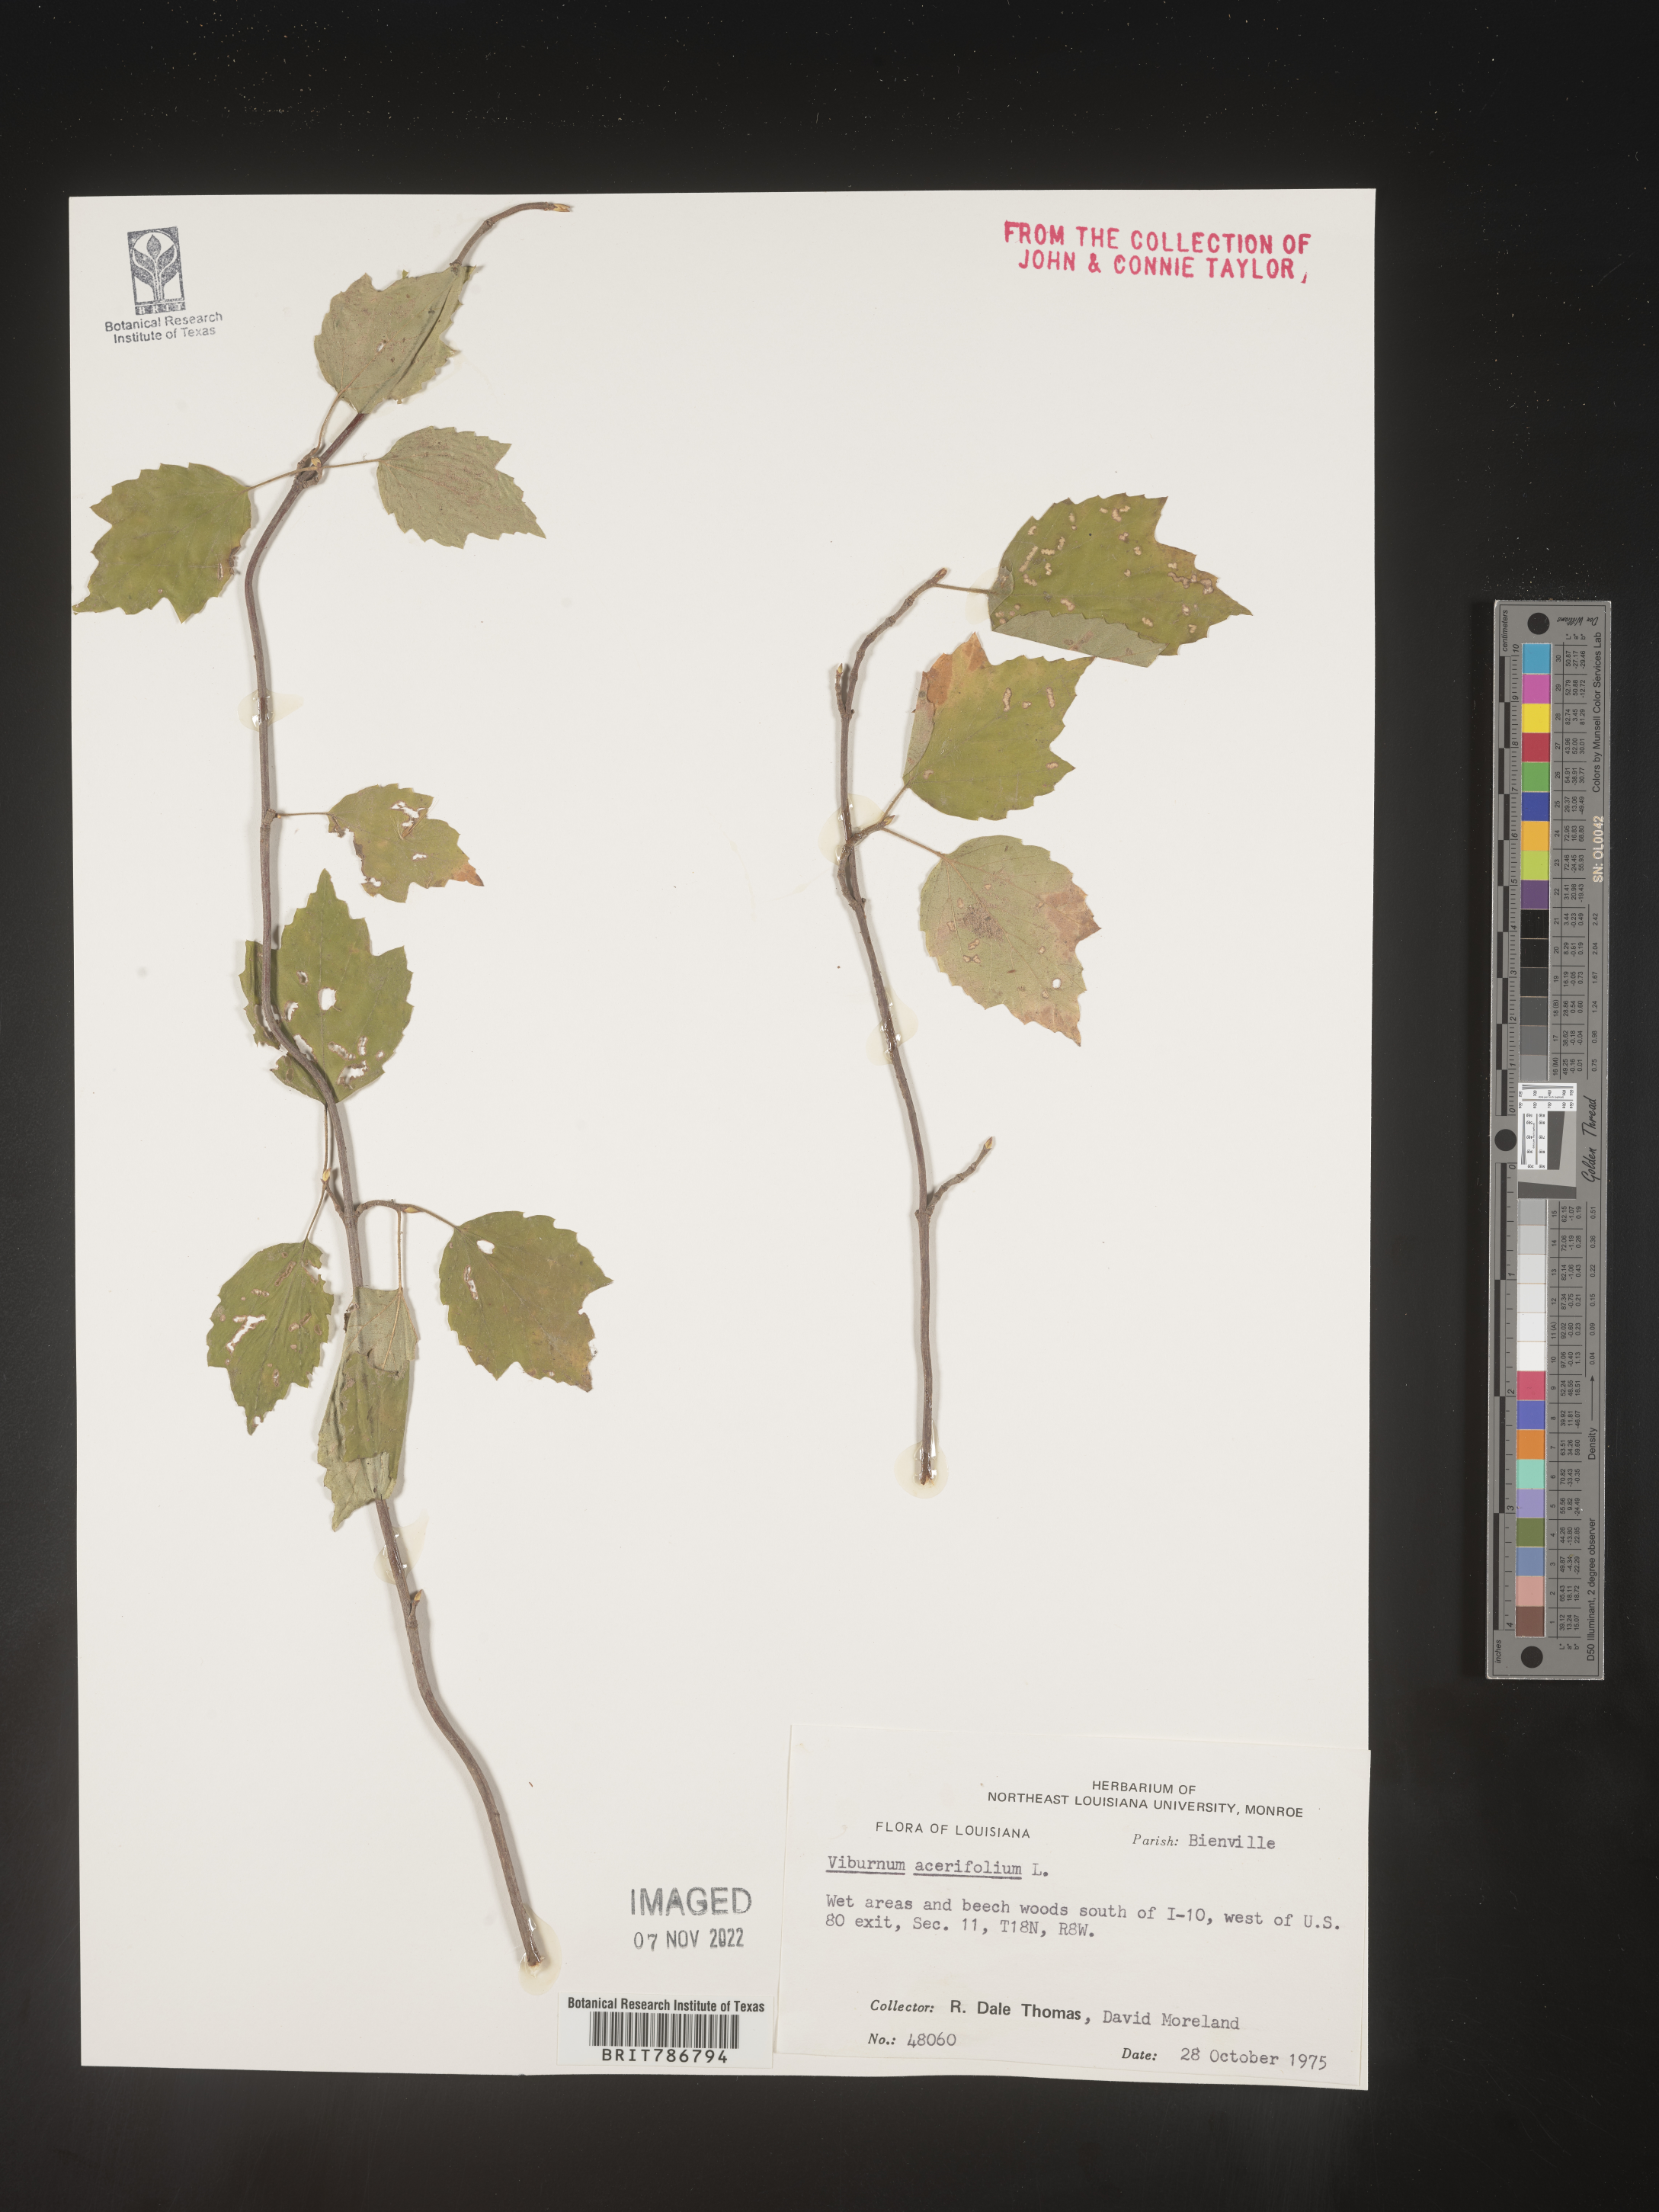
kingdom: Plantae
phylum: Tracheophyta
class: Magnoliopsida
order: Dipsacales
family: Viburnaceae
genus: Viburnum
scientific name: Viburnum acerifolium
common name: Dockmackie
